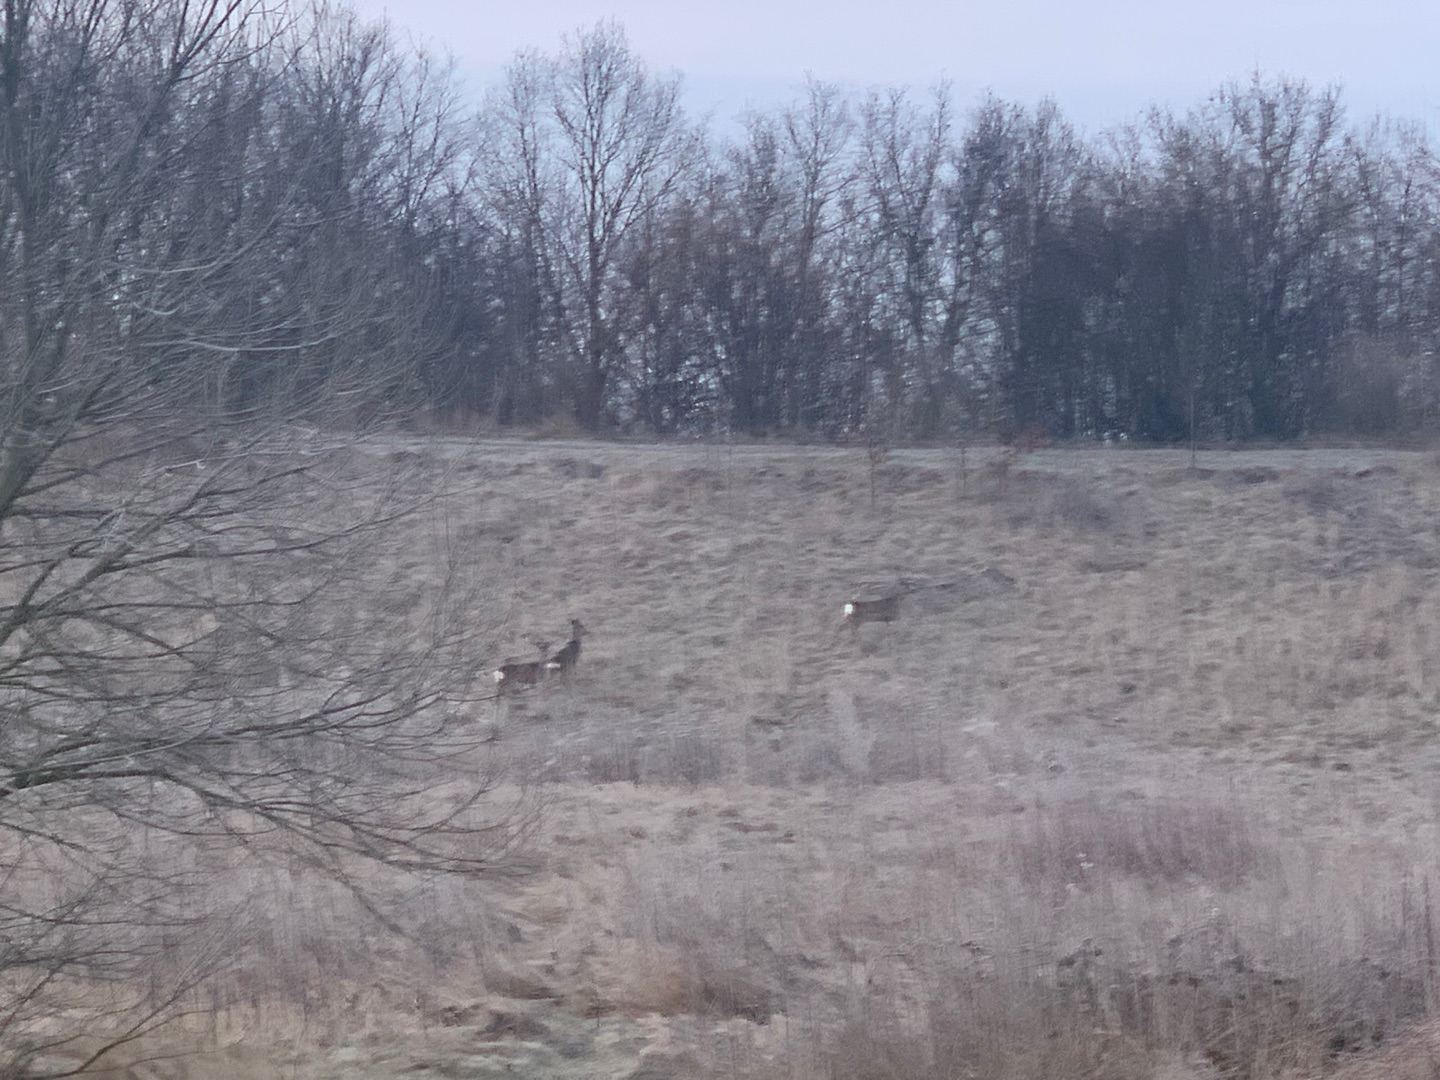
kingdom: Animalia
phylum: Chordata
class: Mammalia
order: Artiodactyla
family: Cervidae
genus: Capreolus
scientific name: Capreolus capreolus
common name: Rådyr
